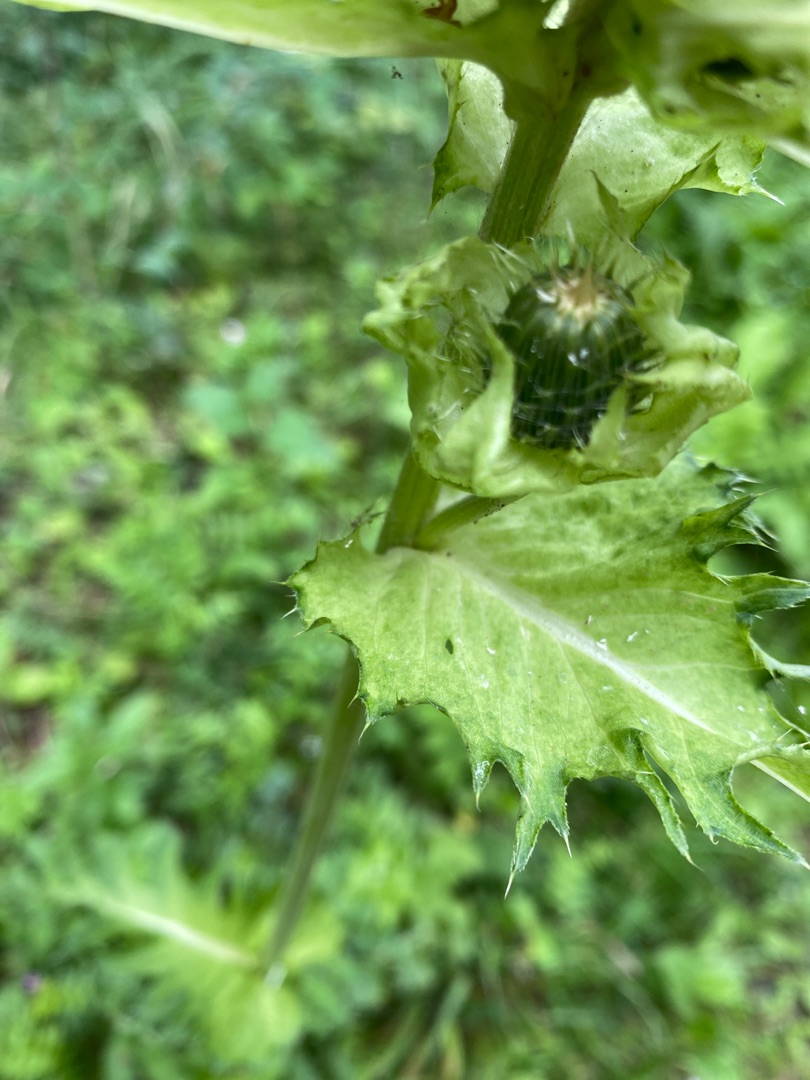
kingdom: Plantae
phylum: Tracheophyta
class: Magnoliopsida
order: Asterales
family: Asteraceae
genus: Cirsium
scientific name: Cirsium oleraceum
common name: Kål-tidsel
